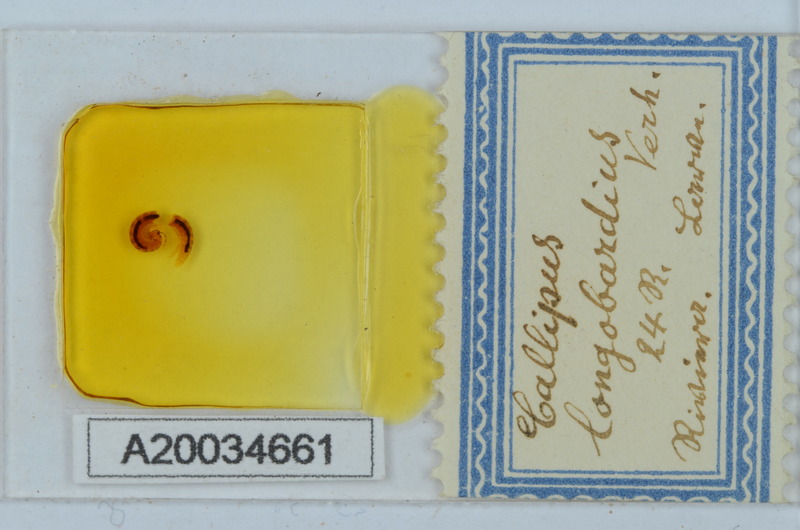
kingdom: Animalia
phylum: Arthropoda
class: Diplopoda
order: Callipodida
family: Callipodidae
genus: Callipus
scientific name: Callipus foetidissimus
